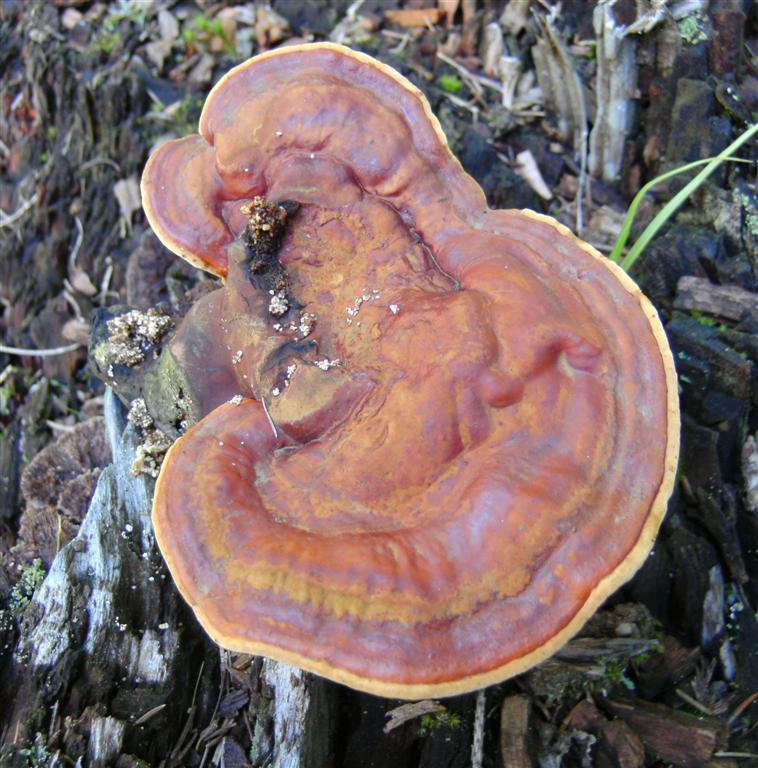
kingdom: Fungi
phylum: Basidiomycota
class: Agaricomycetes
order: Polyporales
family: Polyporaceae
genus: Ganoderma
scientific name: Ganoderma lucidum
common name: skinnende lakporesvamp
